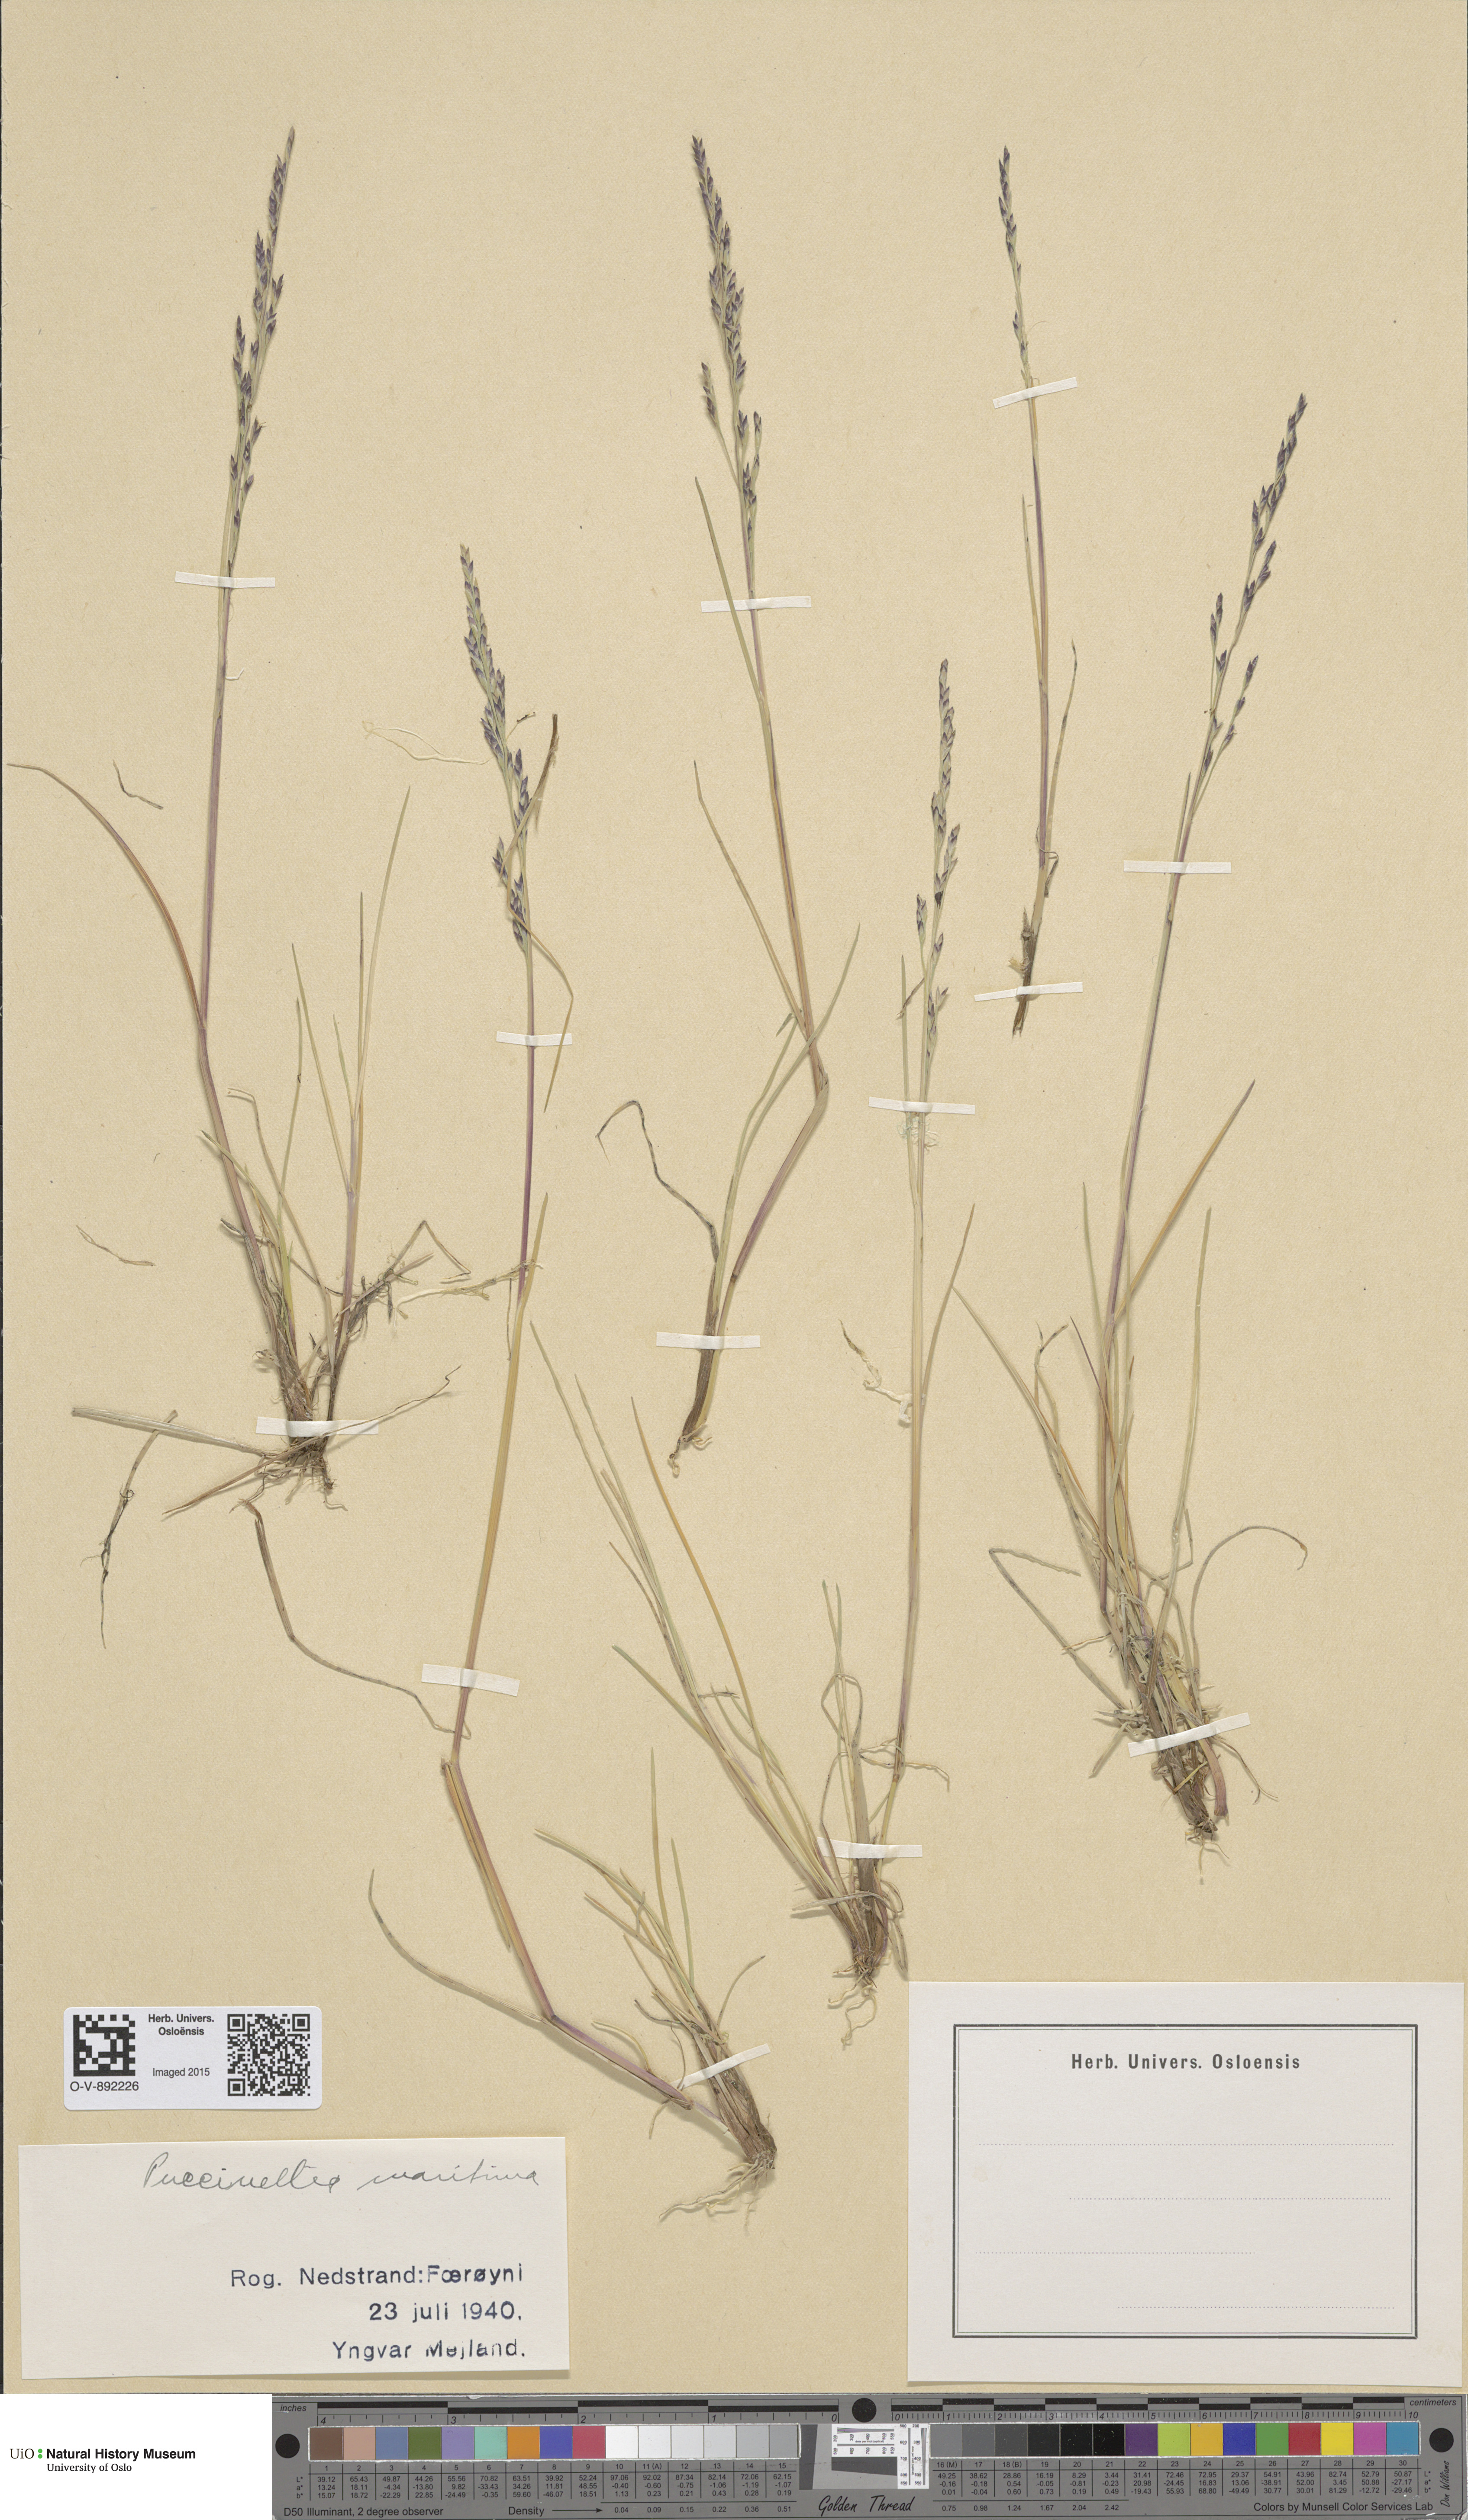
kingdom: Plantae
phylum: Tracheophyta
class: Liliopsida
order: Poales
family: Poaceae
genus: Puccinellia
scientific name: Puccinellia maritima
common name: Common saltmarsh grass
